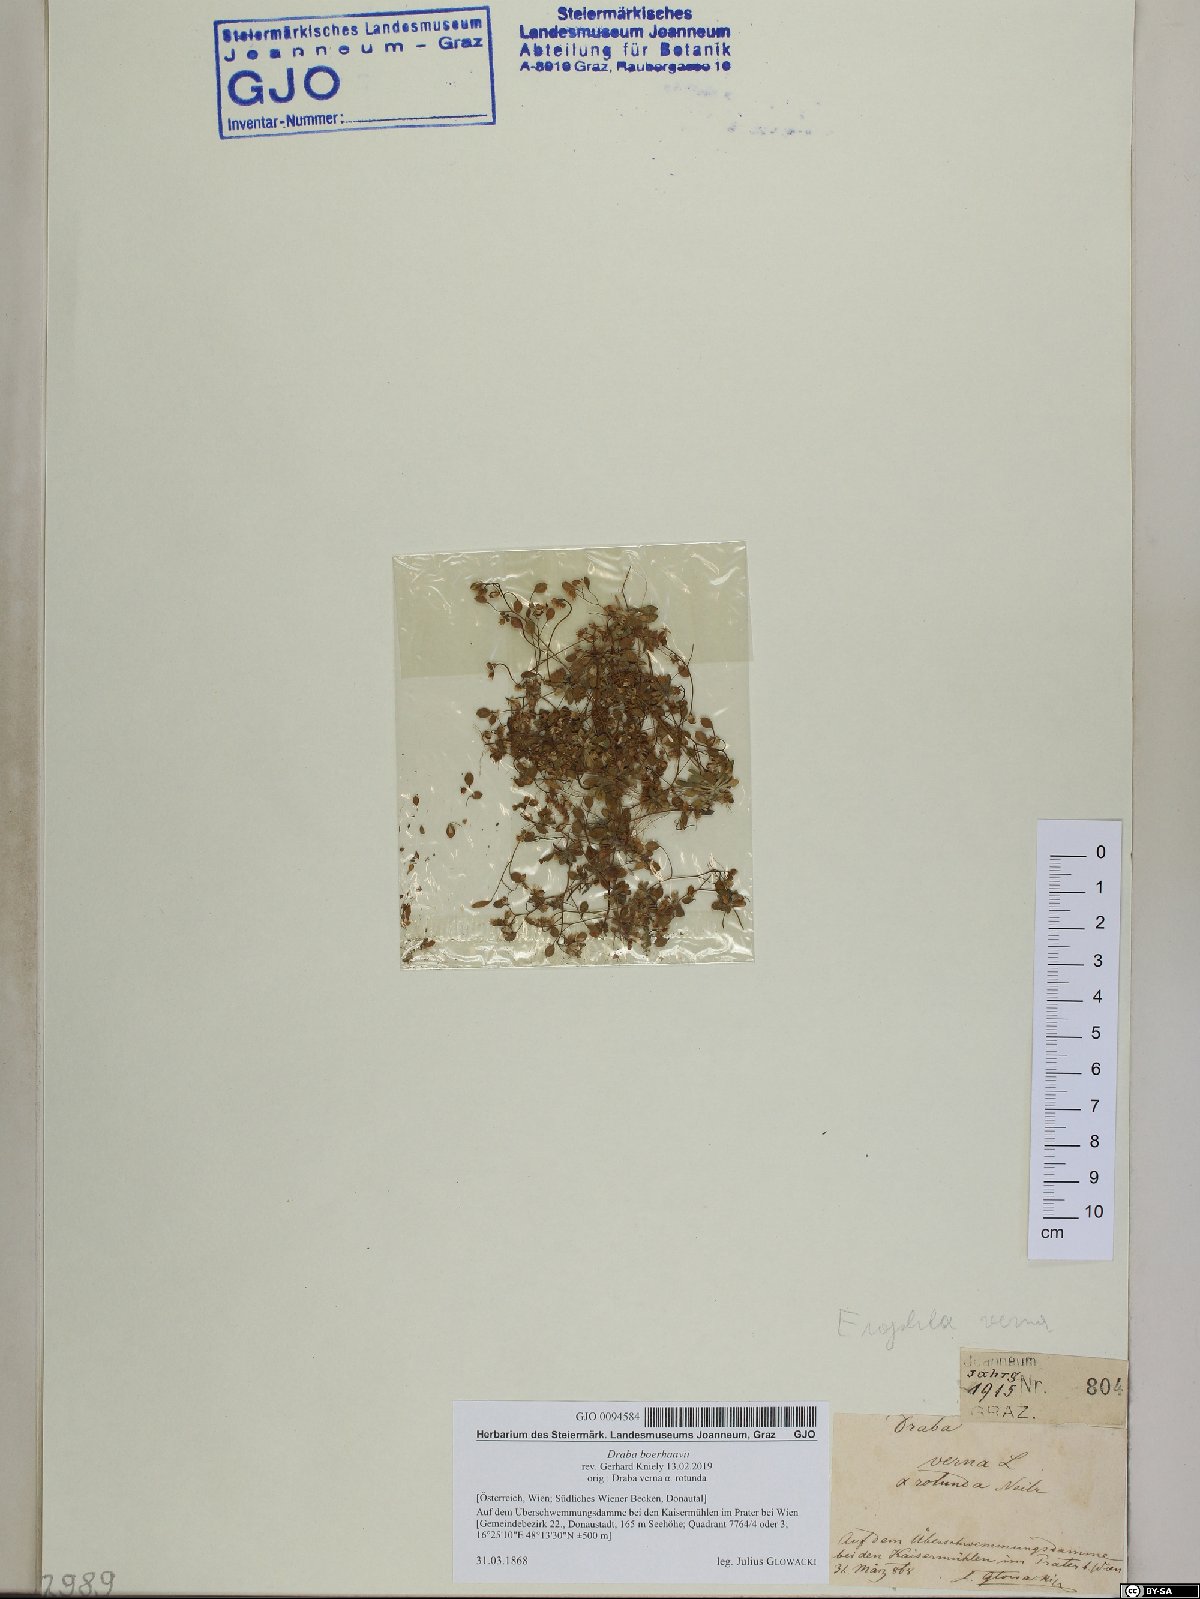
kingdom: Plantae
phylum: Tracheophyta
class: Magnoliopsida
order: Brassicales
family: Brassicaceae
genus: Draba
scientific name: Draba verna
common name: Spring draba
